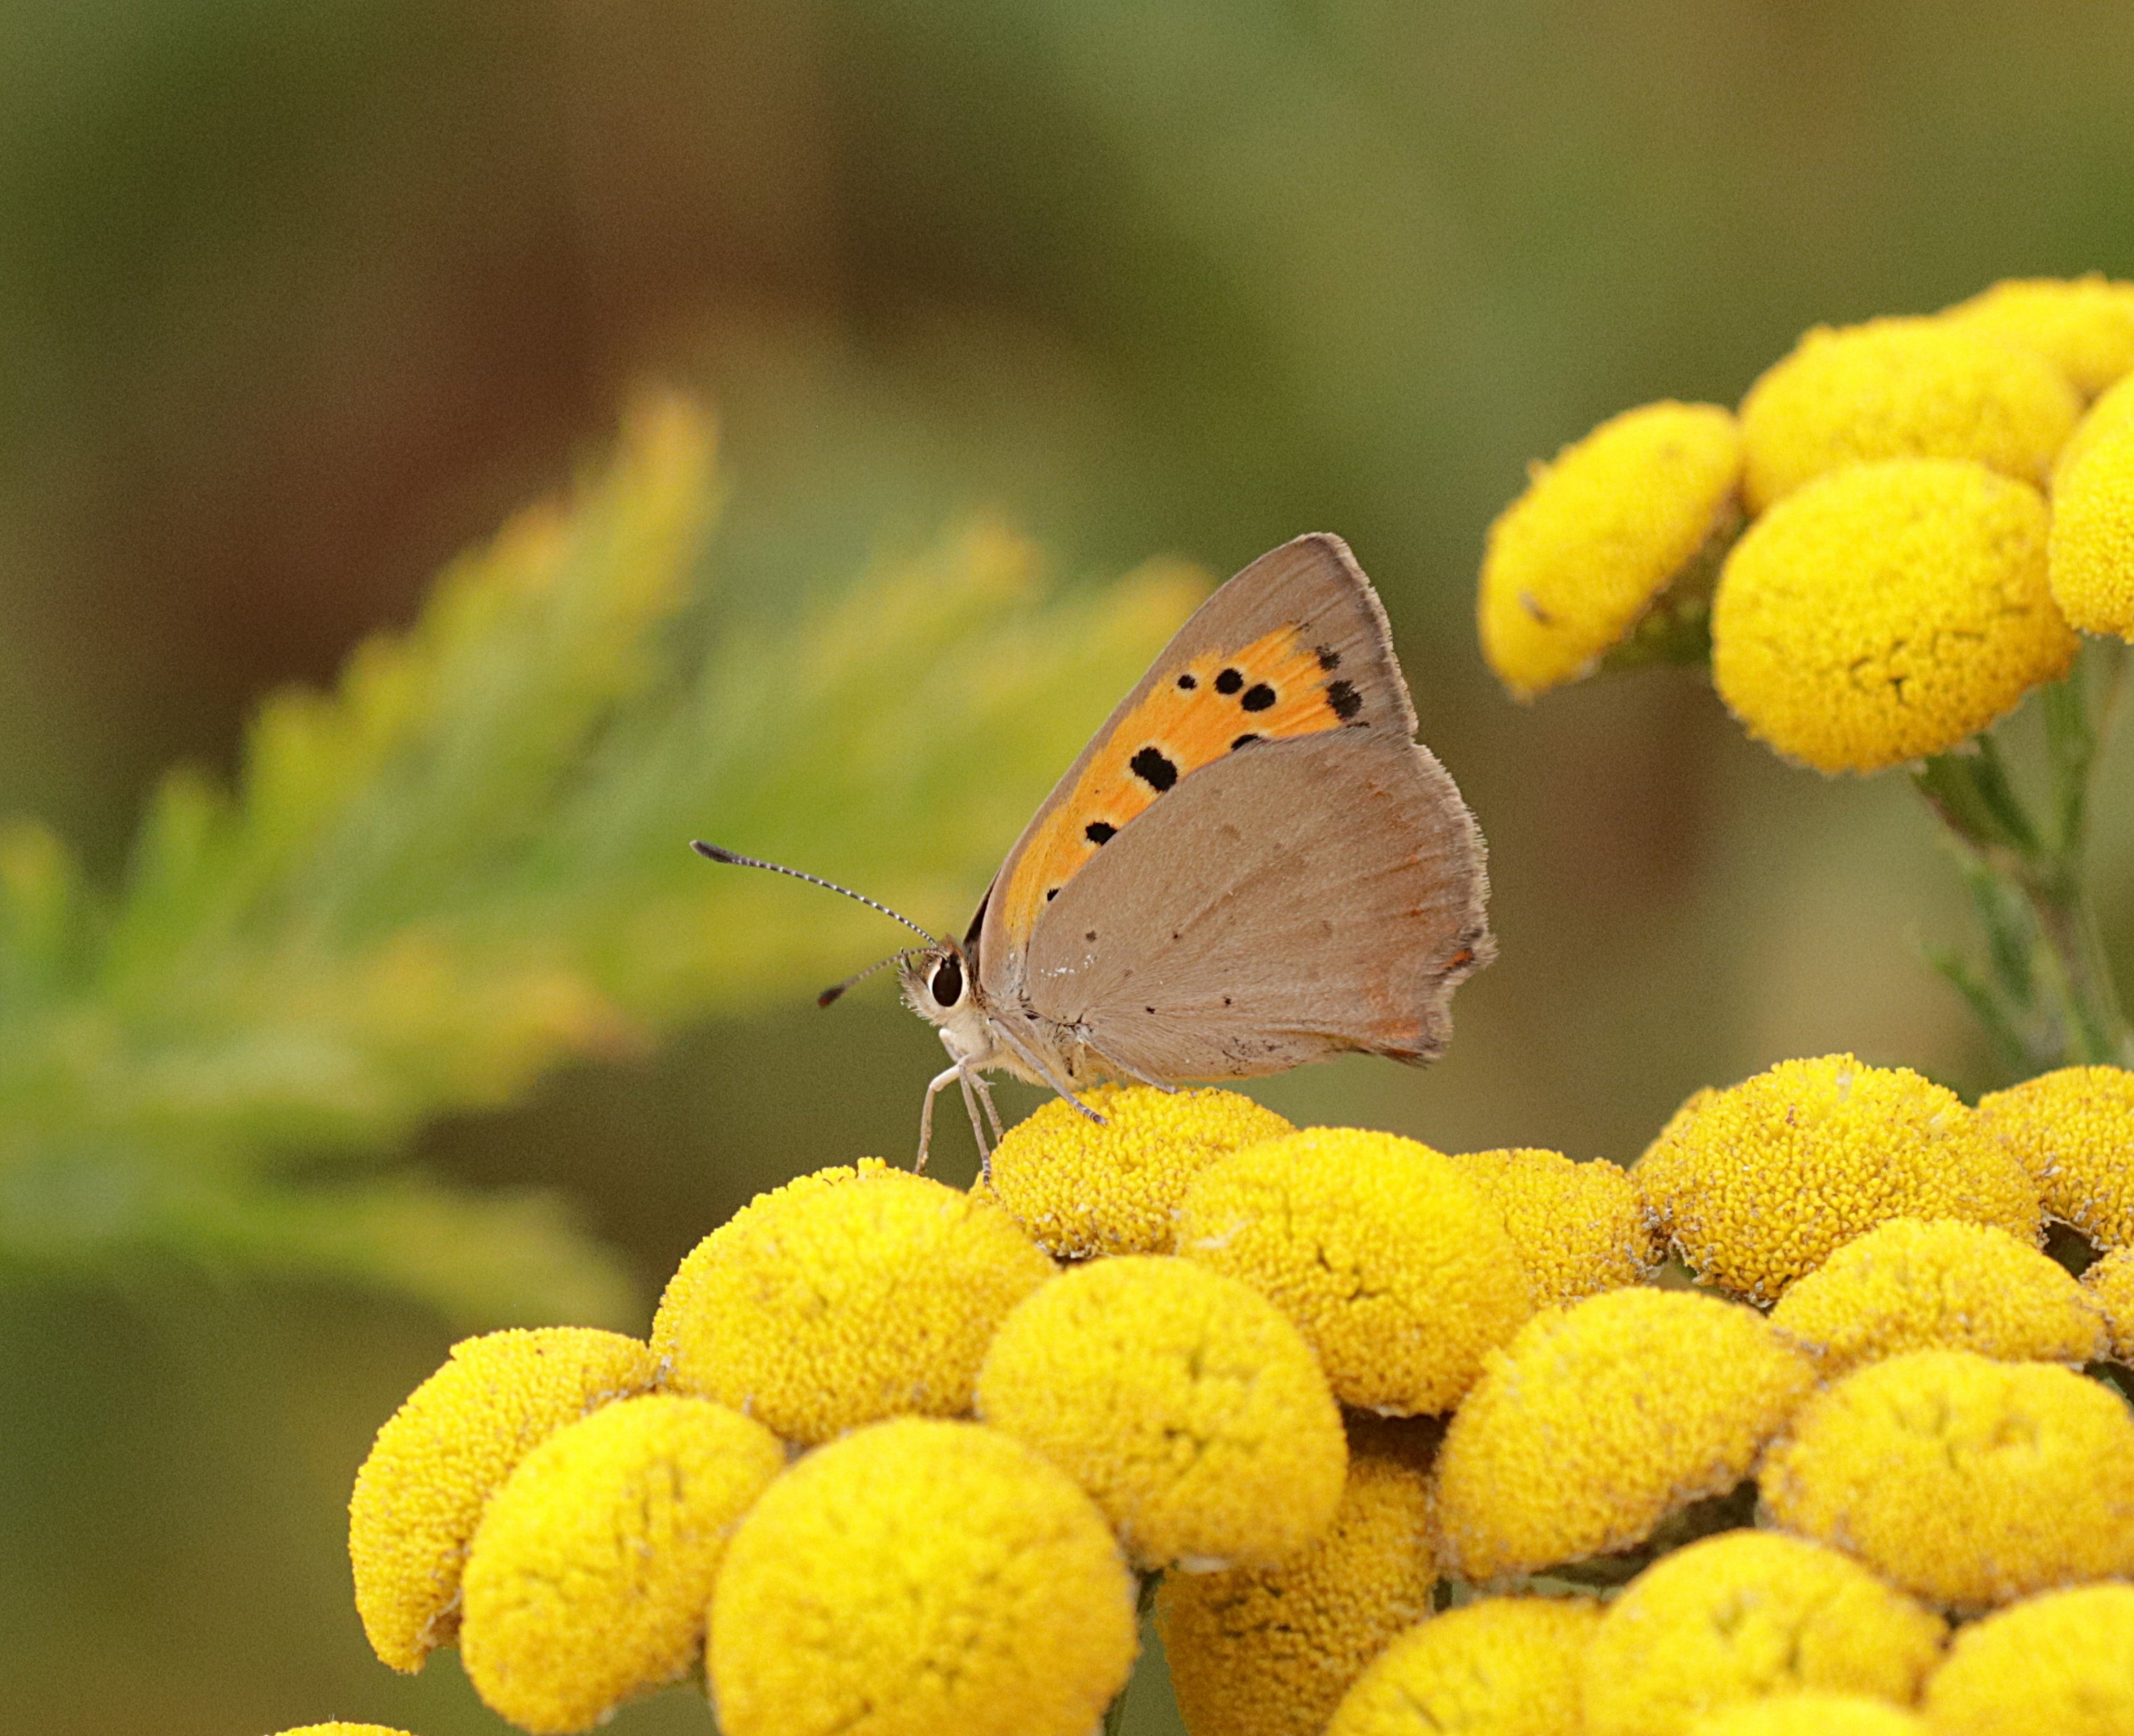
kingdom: Animalia
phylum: Arthropoda
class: Insecta
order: Lepidoptera
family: Lycaenidae
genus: Lycaena
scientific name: Lycaena phlaeas
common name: Lille ildfugl
